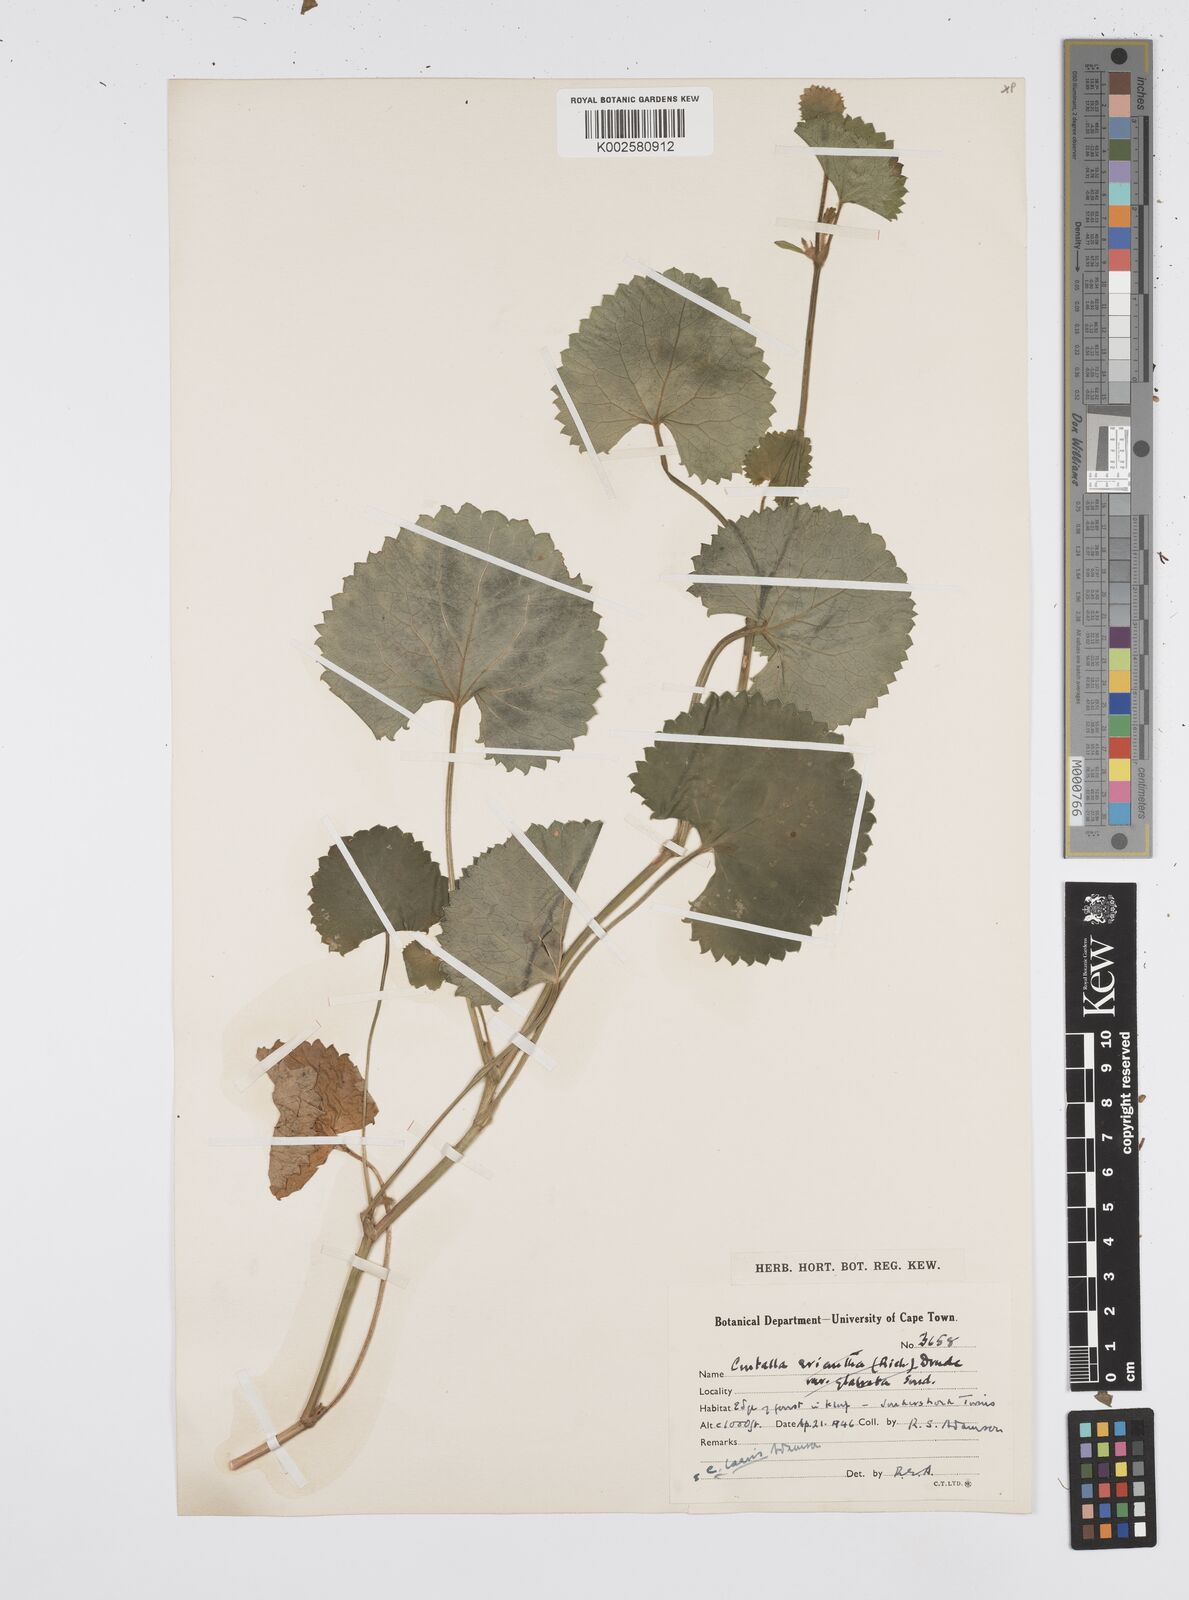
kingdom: Plantae
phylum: Tracheophyta
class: Magnoliopsida
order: Apiales
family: Apiaceae
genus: Centella
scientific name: Centella laevis
